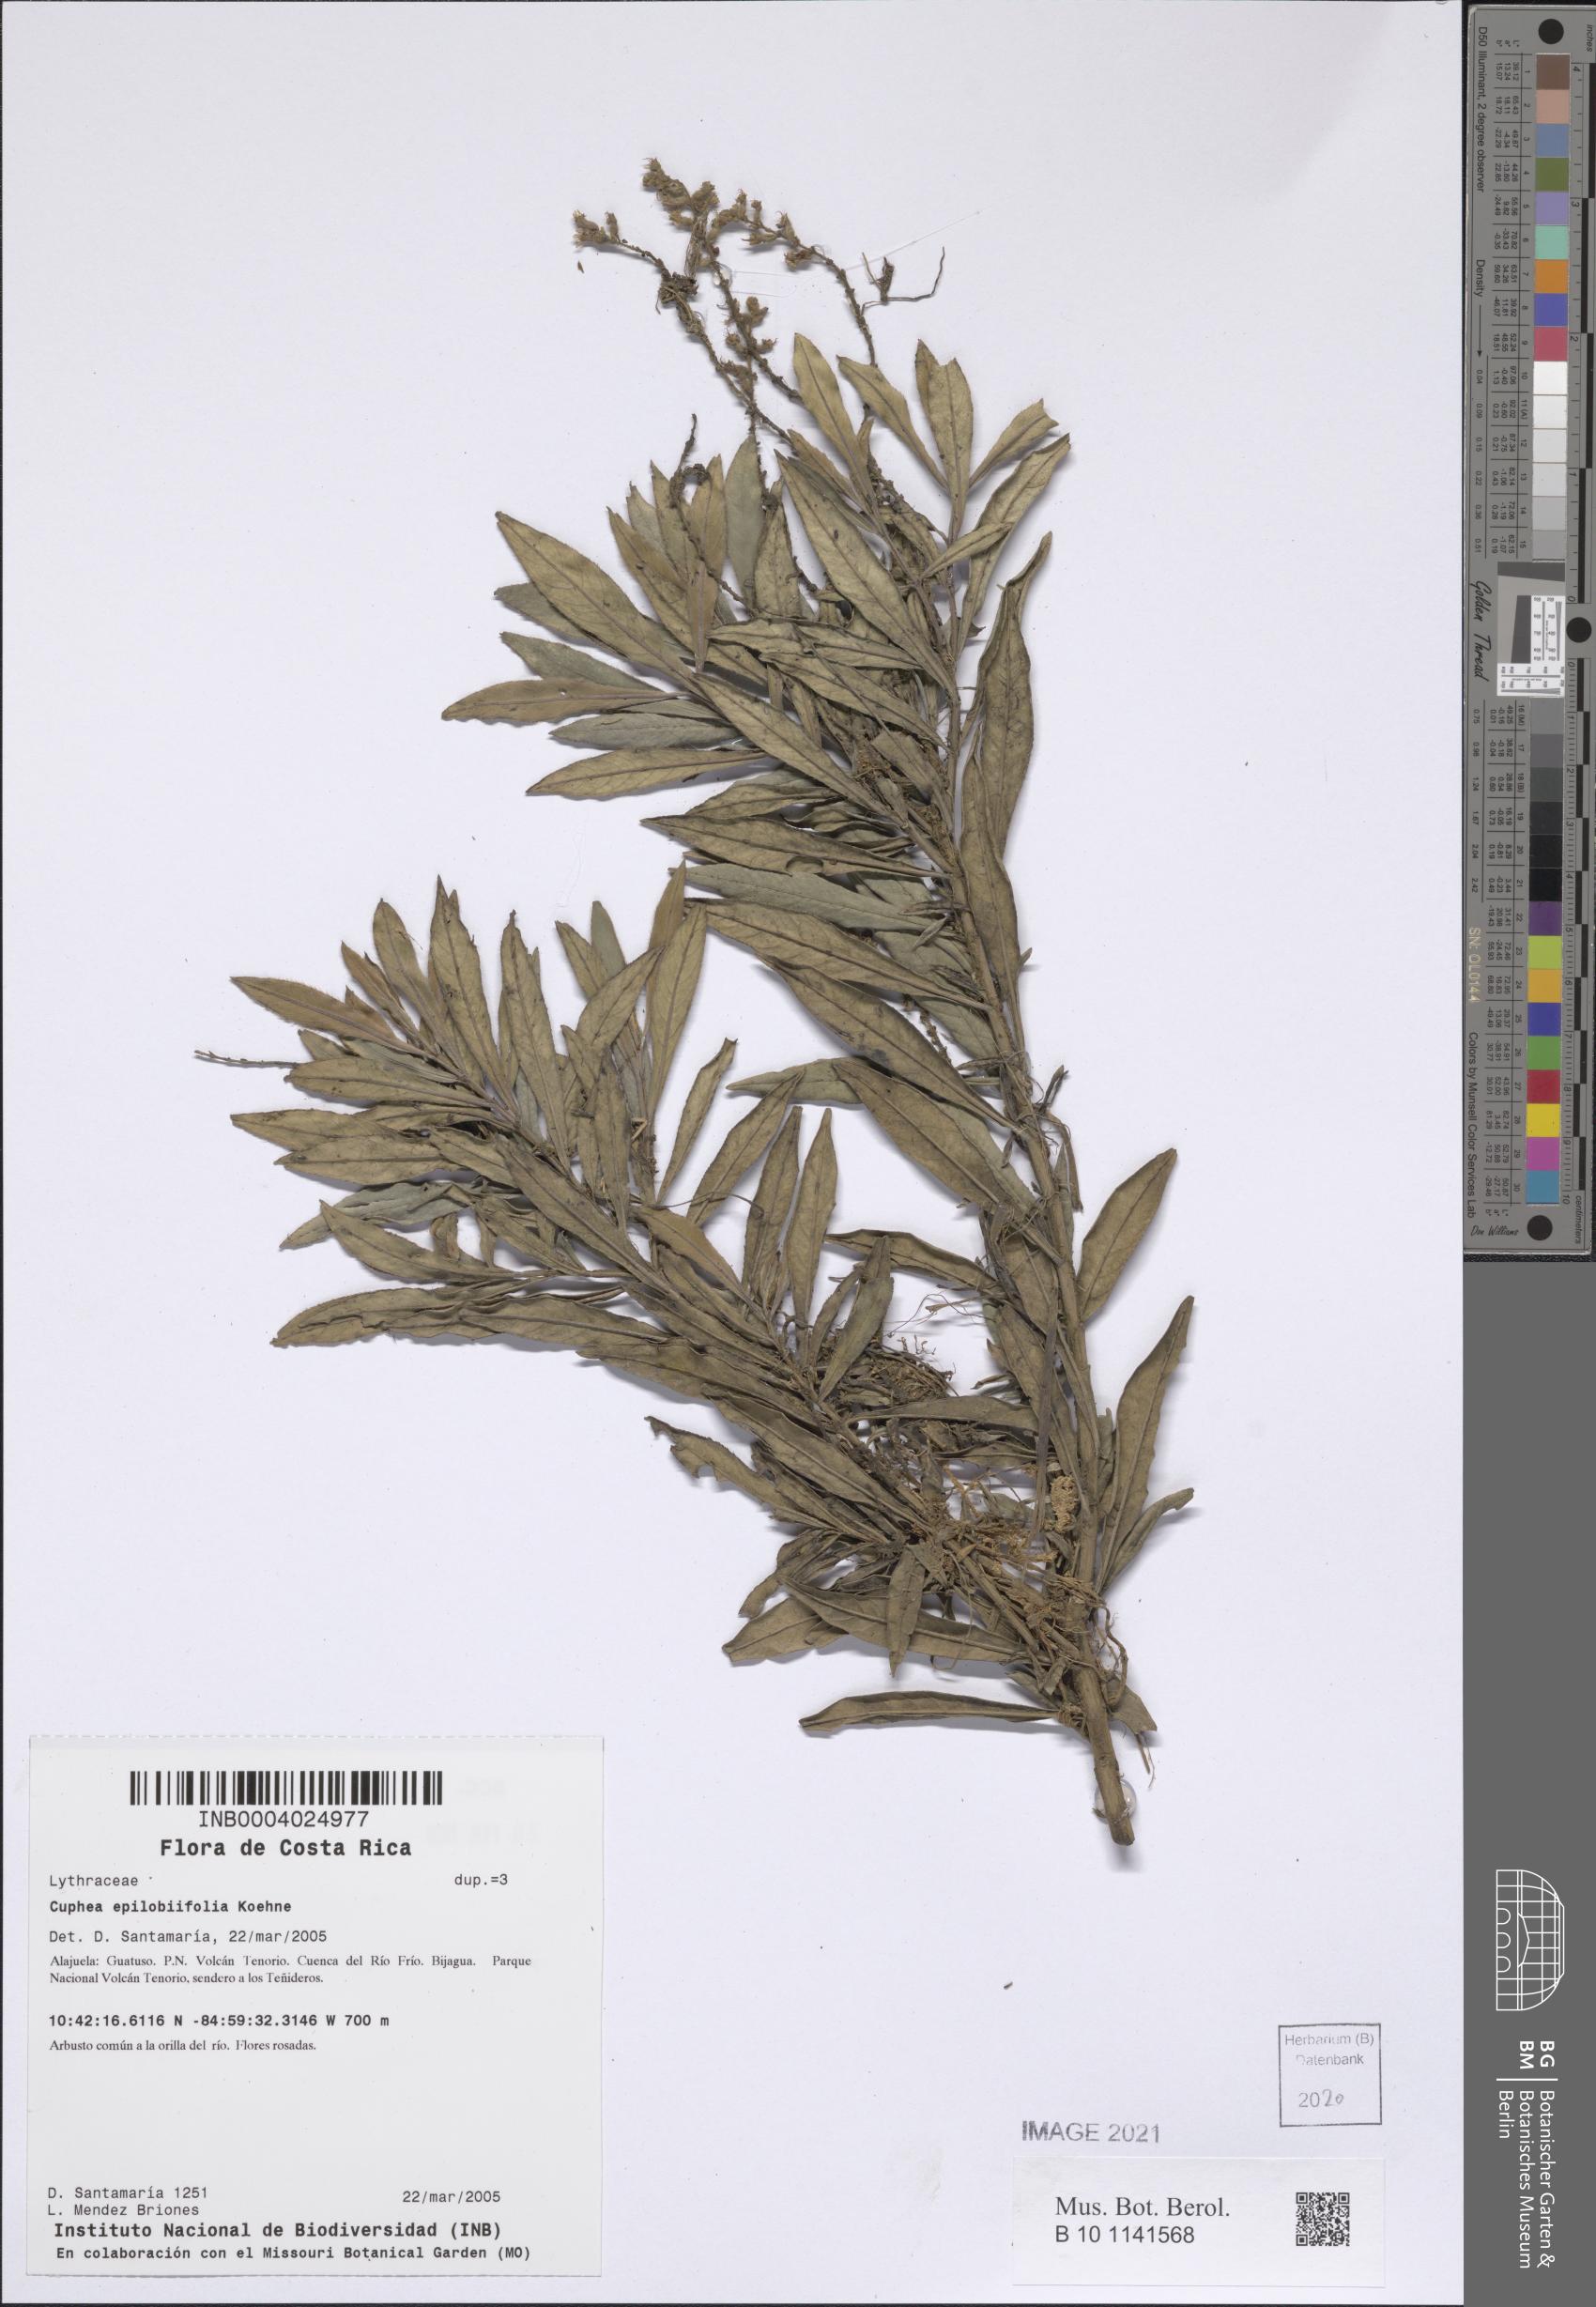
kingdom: Plantae
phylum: Tracheophyta
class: Magnoliopsida
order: Myrtales
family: Lythraceae
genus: Cuphea
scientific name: Cuphea epilobiifolia
